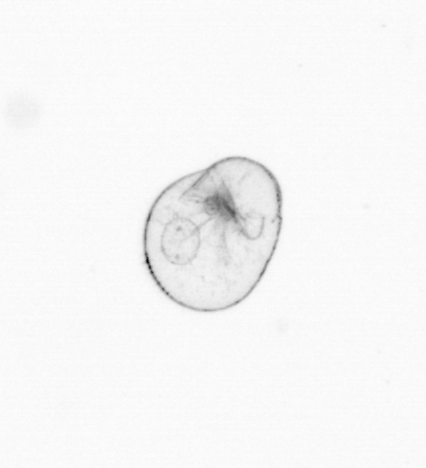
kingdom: Chromista
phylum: Myzozoa
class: Dinophyceae
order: Noctilucales
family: Noctilucaceae
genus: Noctiluca
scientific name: Noctiluca scintillans
